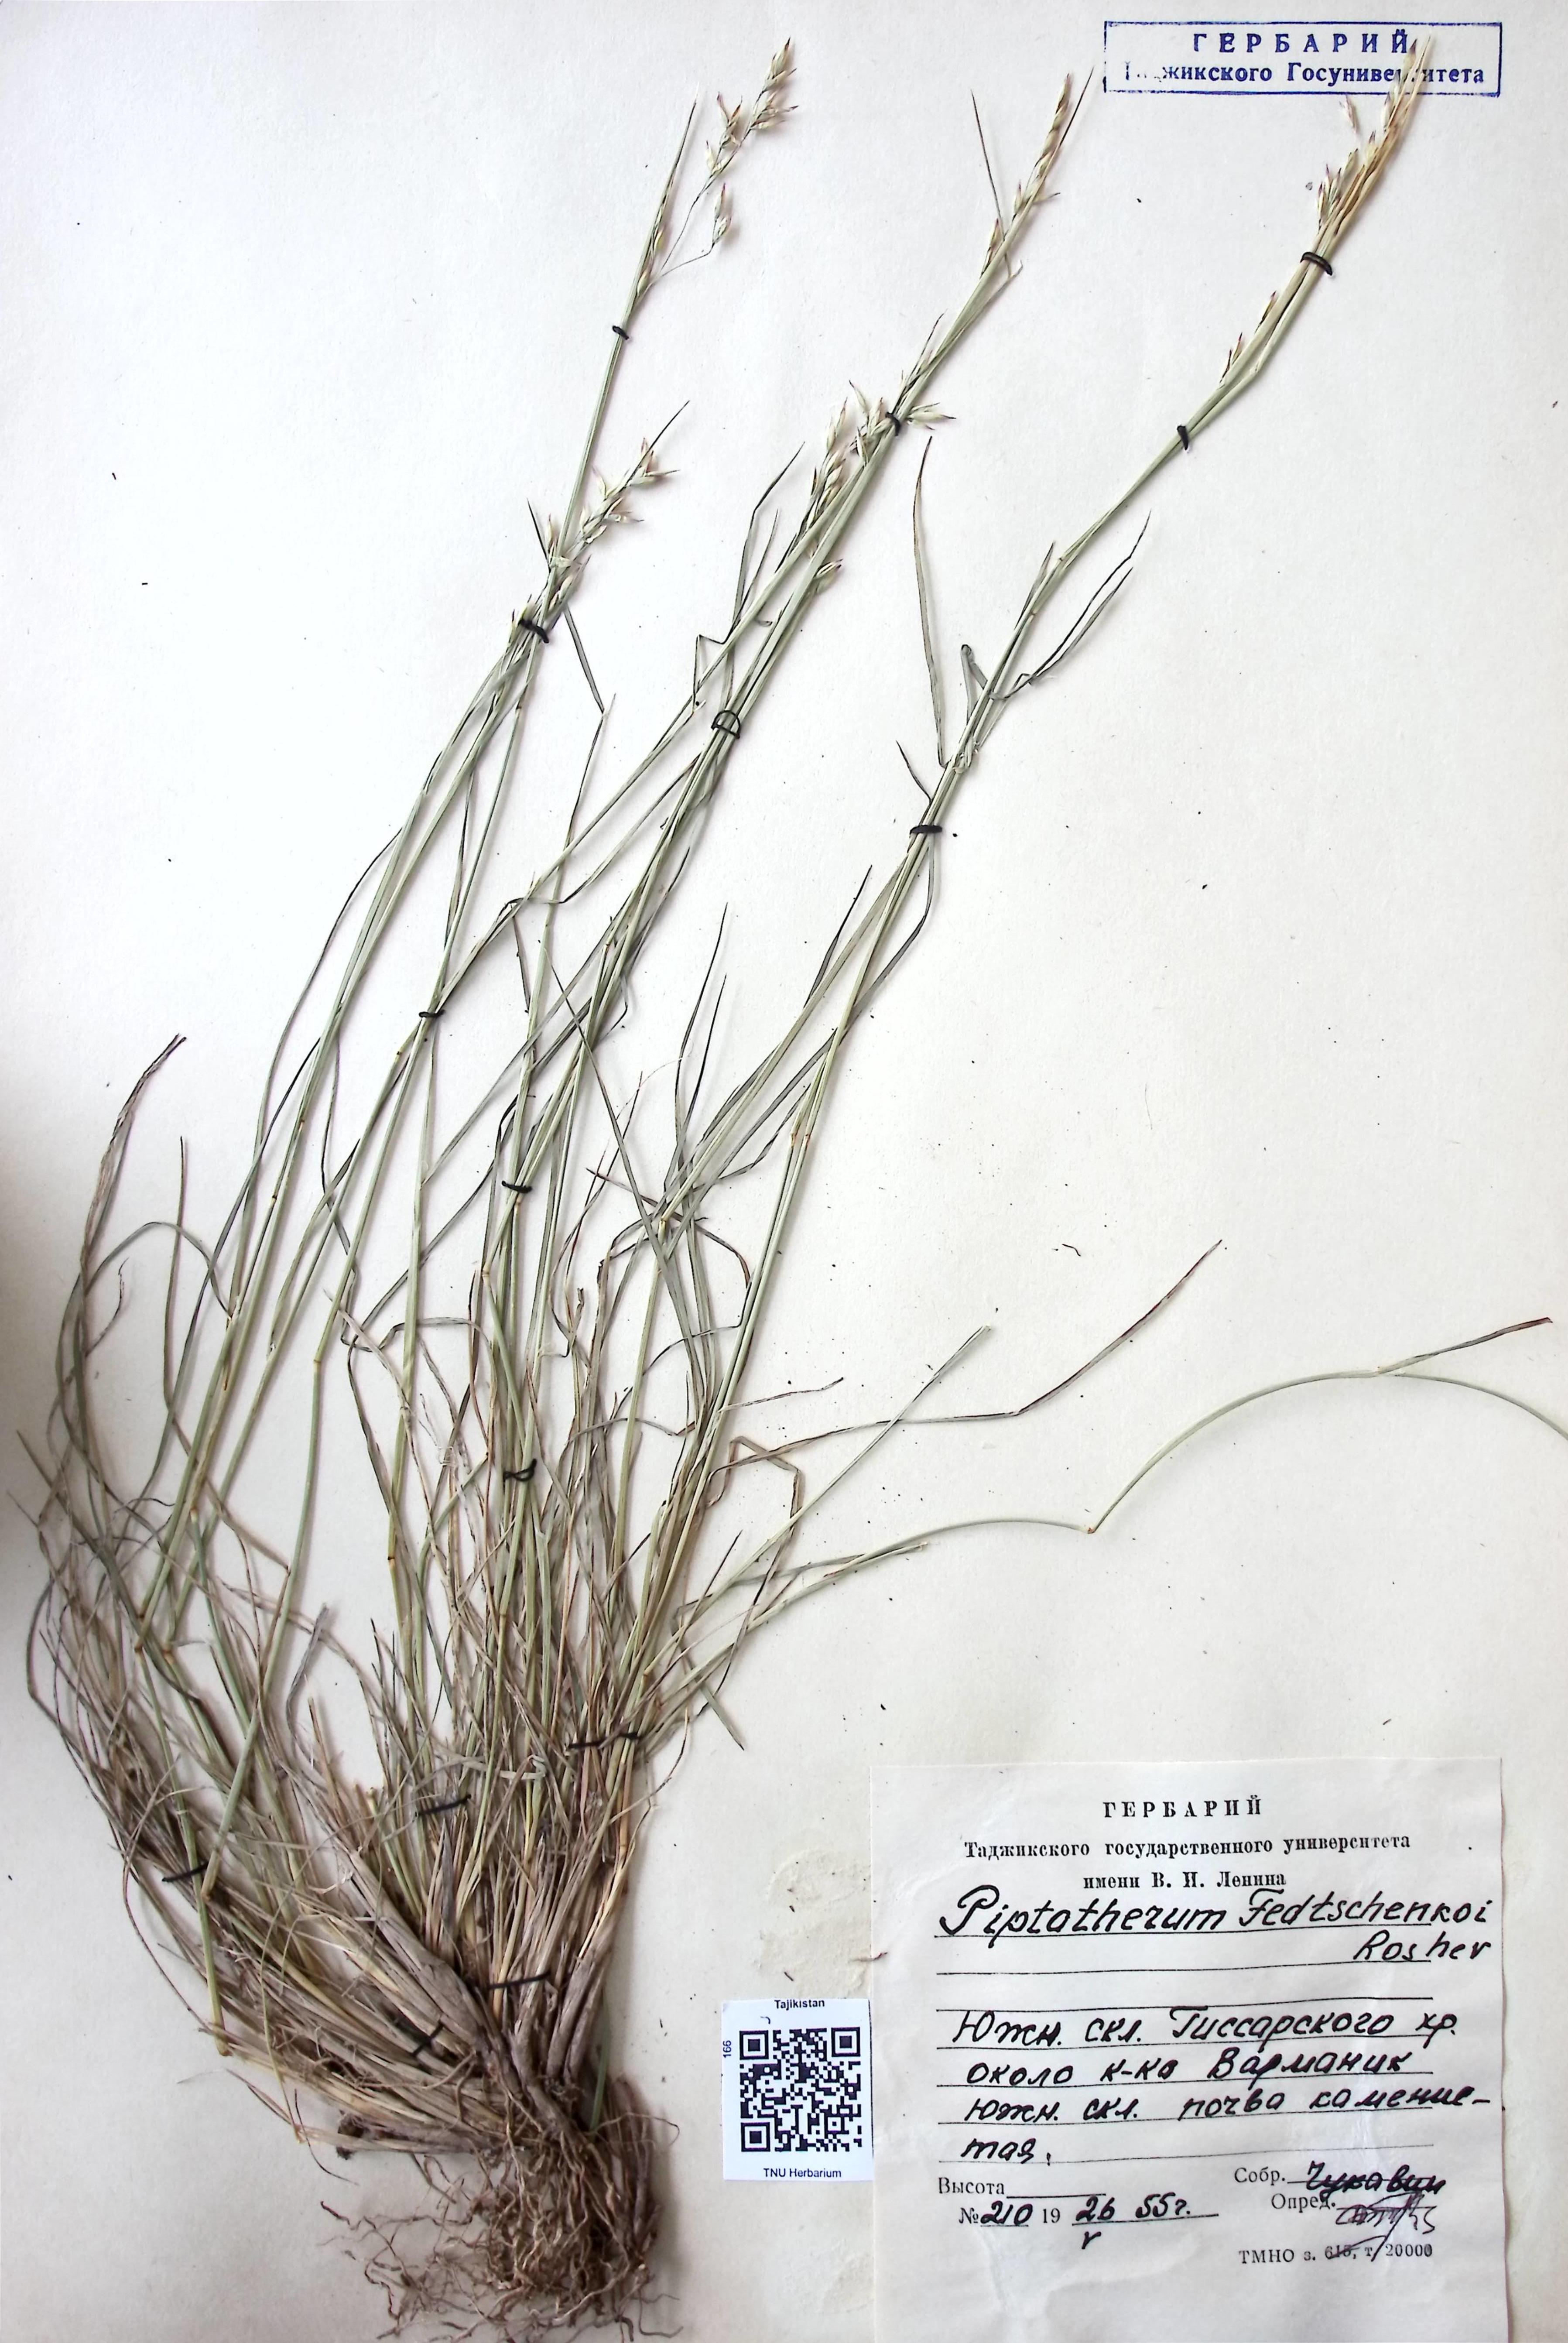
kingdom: Plantae
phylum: Tracheophyta
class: Liliopsida
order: Poales
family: Poaceae
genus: Piptatherum
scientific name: Piptatherum sogdianum
